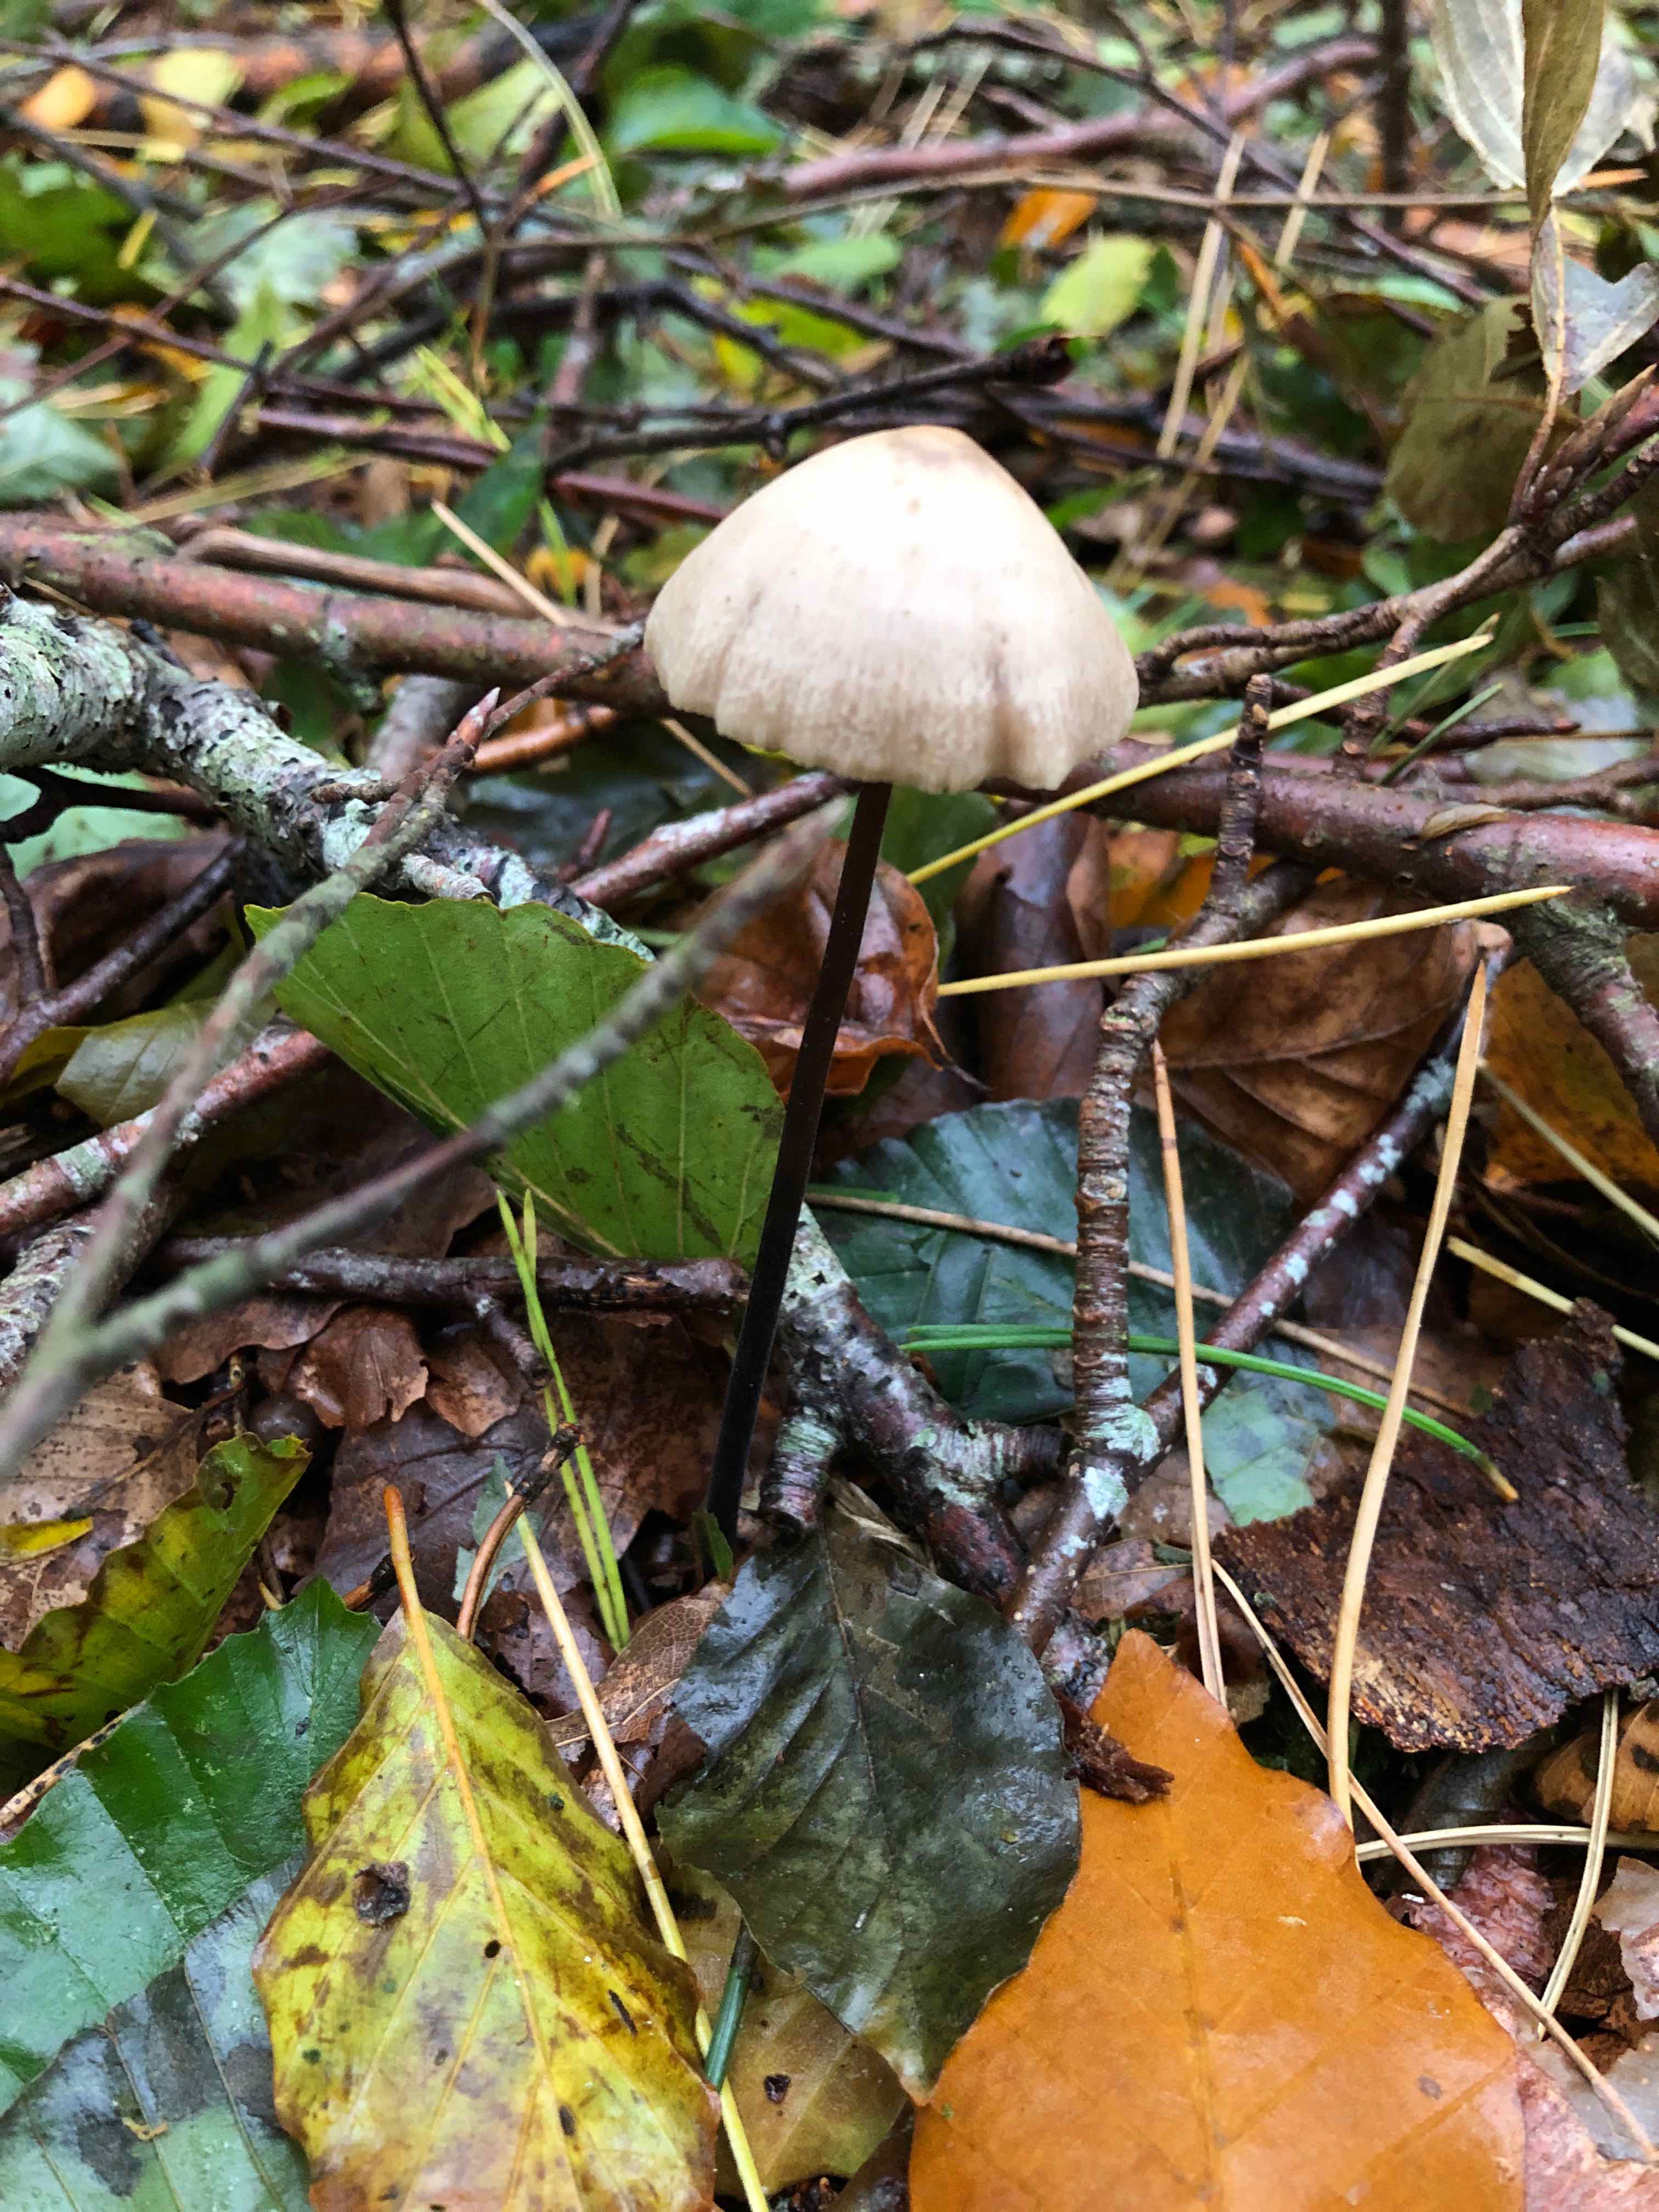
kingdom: Fungi
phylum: Basidiomycota
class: Agaricomycetes
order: Agaricales
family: Omphalotaceae
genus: Mycetinis
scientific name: Mycetinis alliaceus
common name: stor løghat
